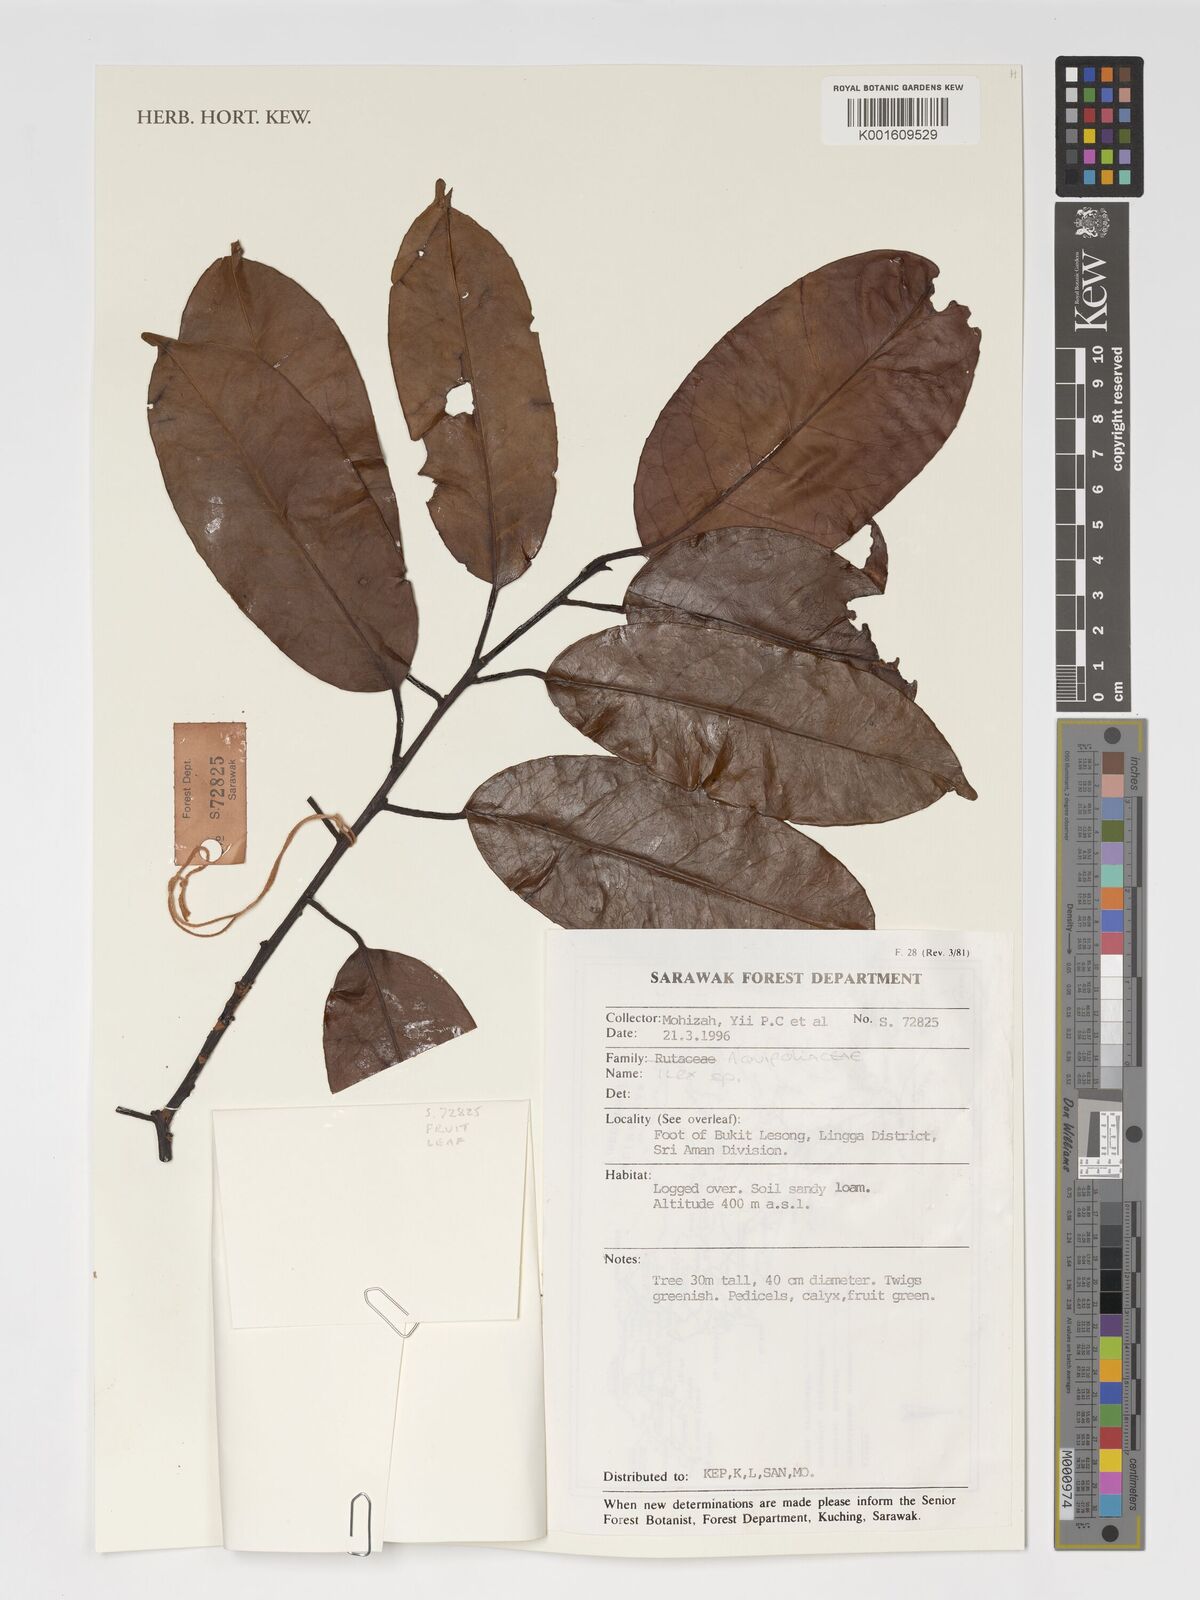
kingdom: Plantae
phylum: Tracheophyta
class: Magnoliopsida
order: Aquifoliales
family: Aquifoliaceae
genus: Ilex
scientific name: Ilex
